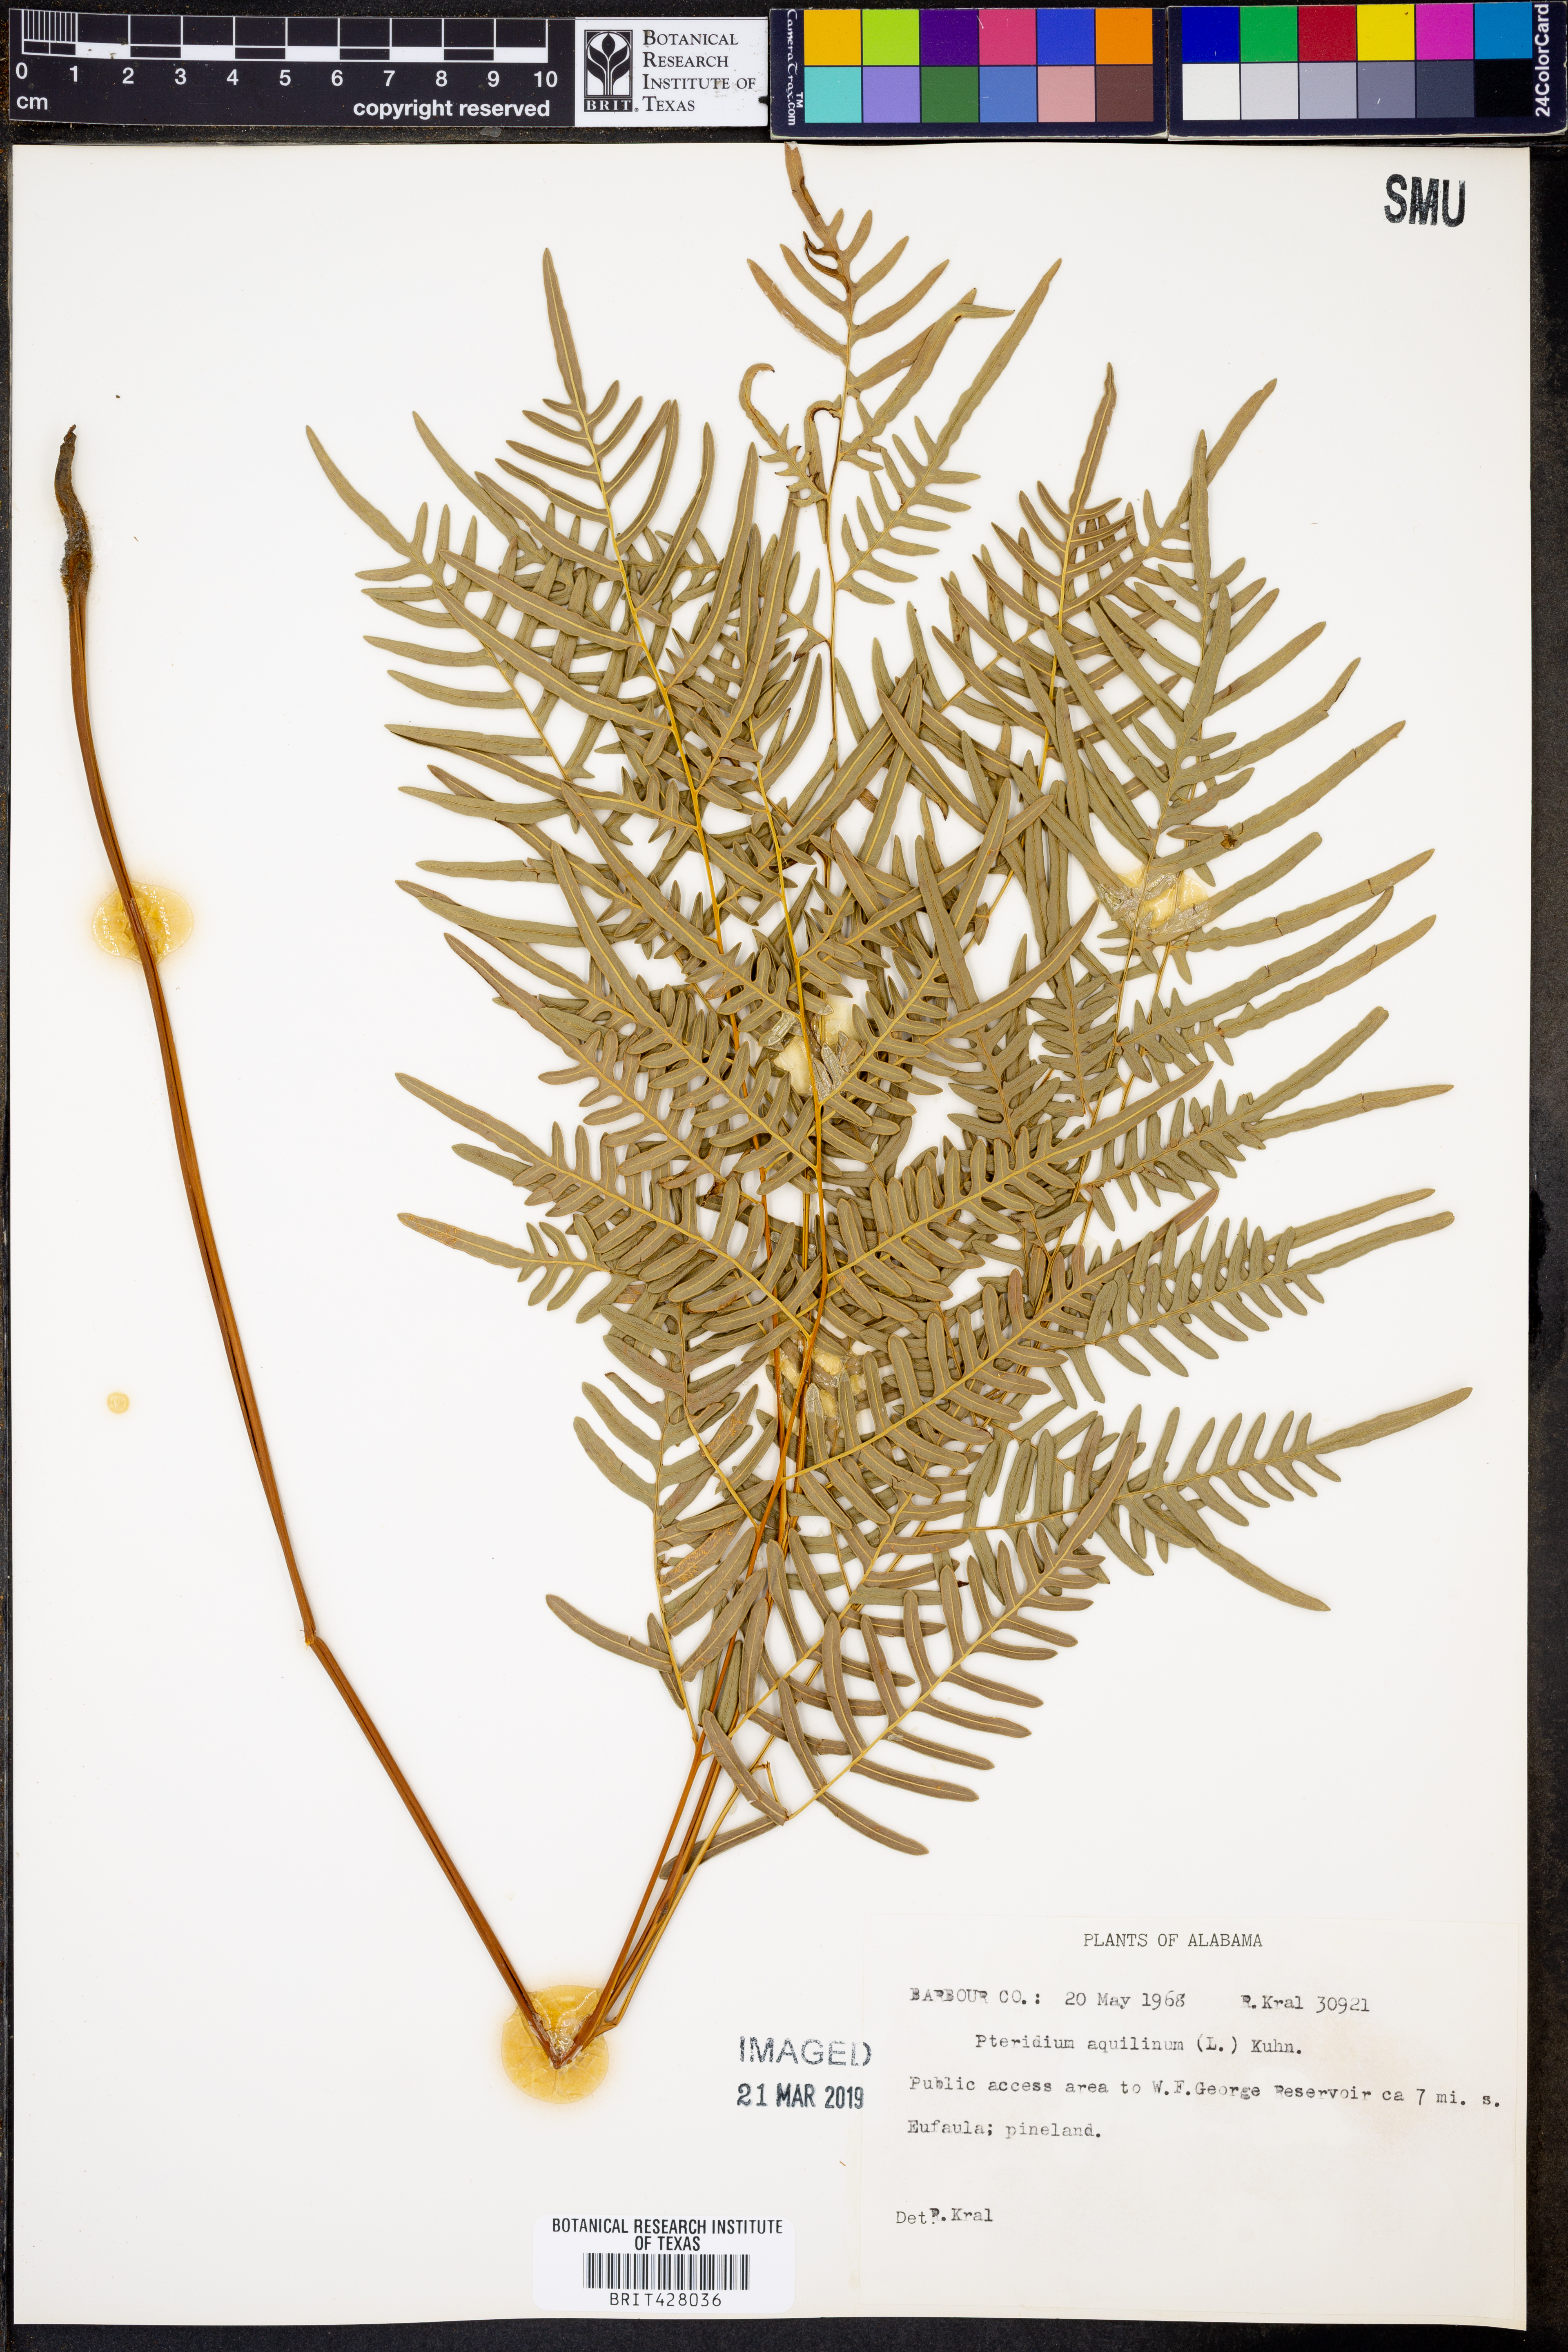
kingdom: Plantae
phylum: Tracheophyta
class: Polypodiopsida
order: Polypodiales
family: Dennstaedtiaceae
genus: Pteridium
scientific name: Pteridium aquilinum
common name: Bracken
